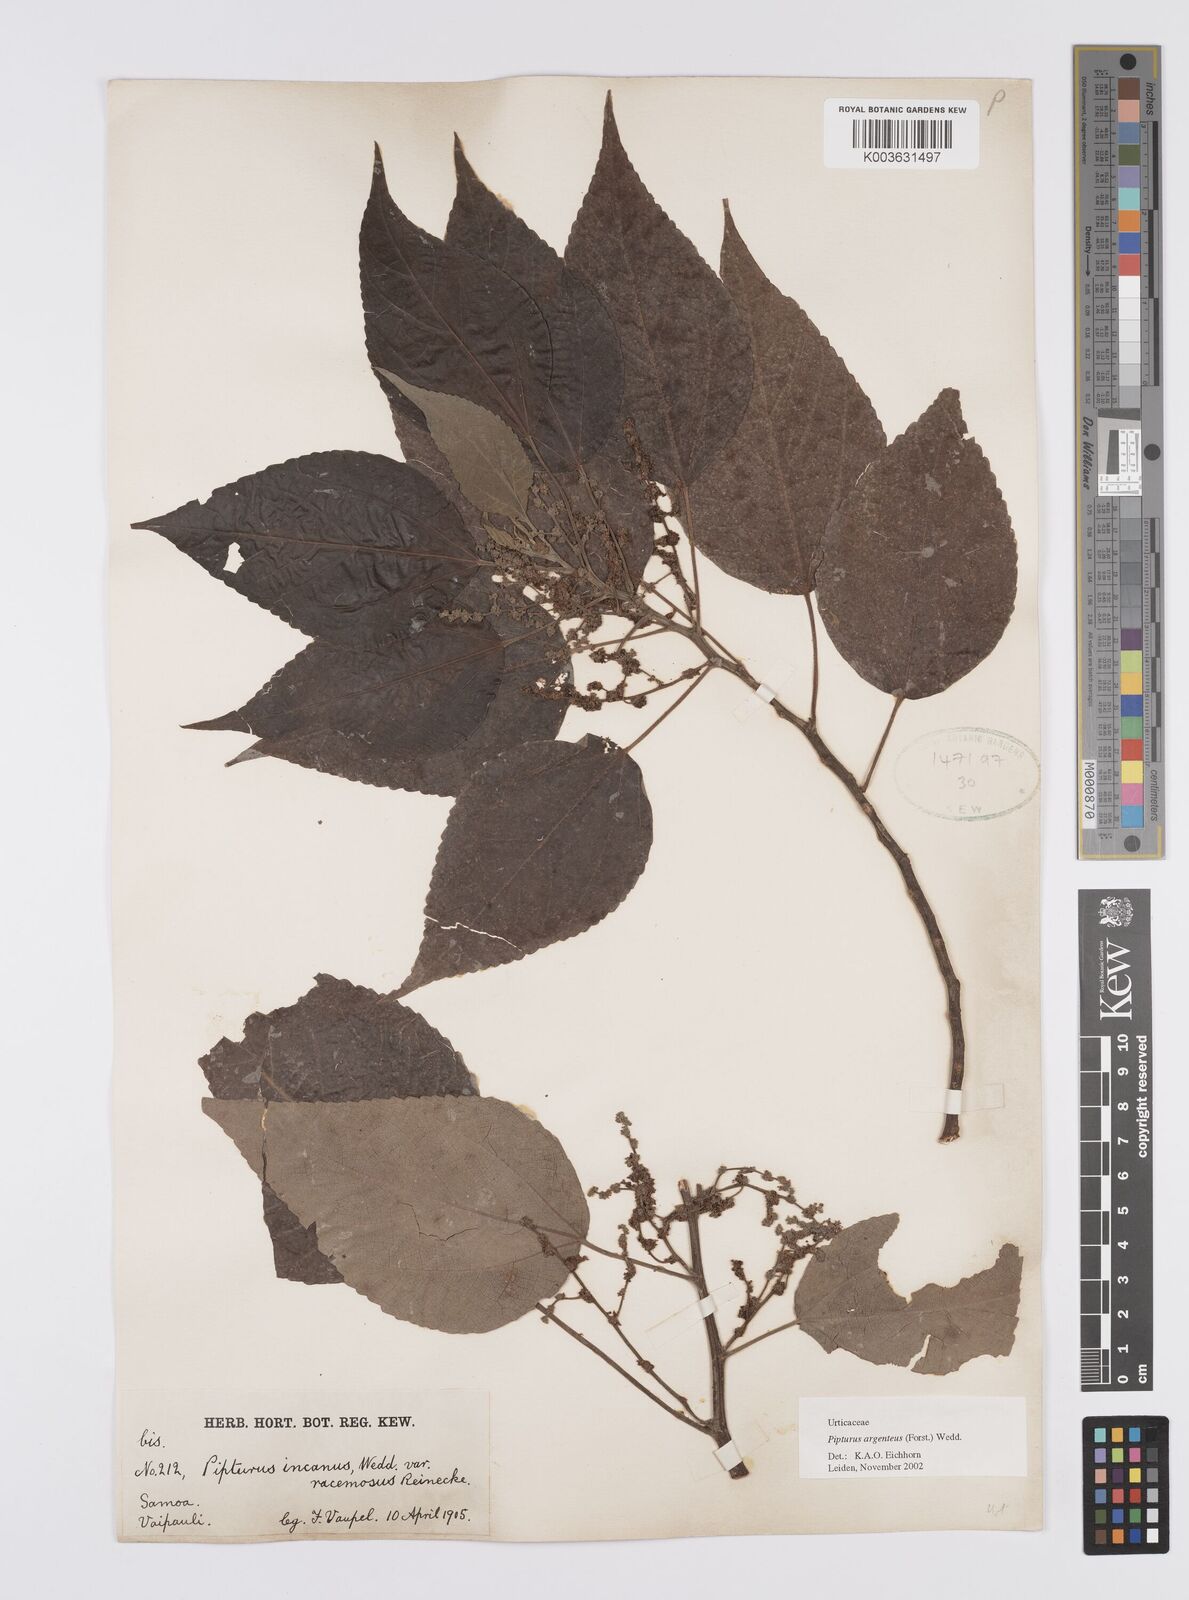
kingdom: Plantae
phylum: Tracheophyta
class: Magnoliopsida
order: Rosales
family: Urticaceae
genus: Pipturus
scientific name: Pipturus argenteus
